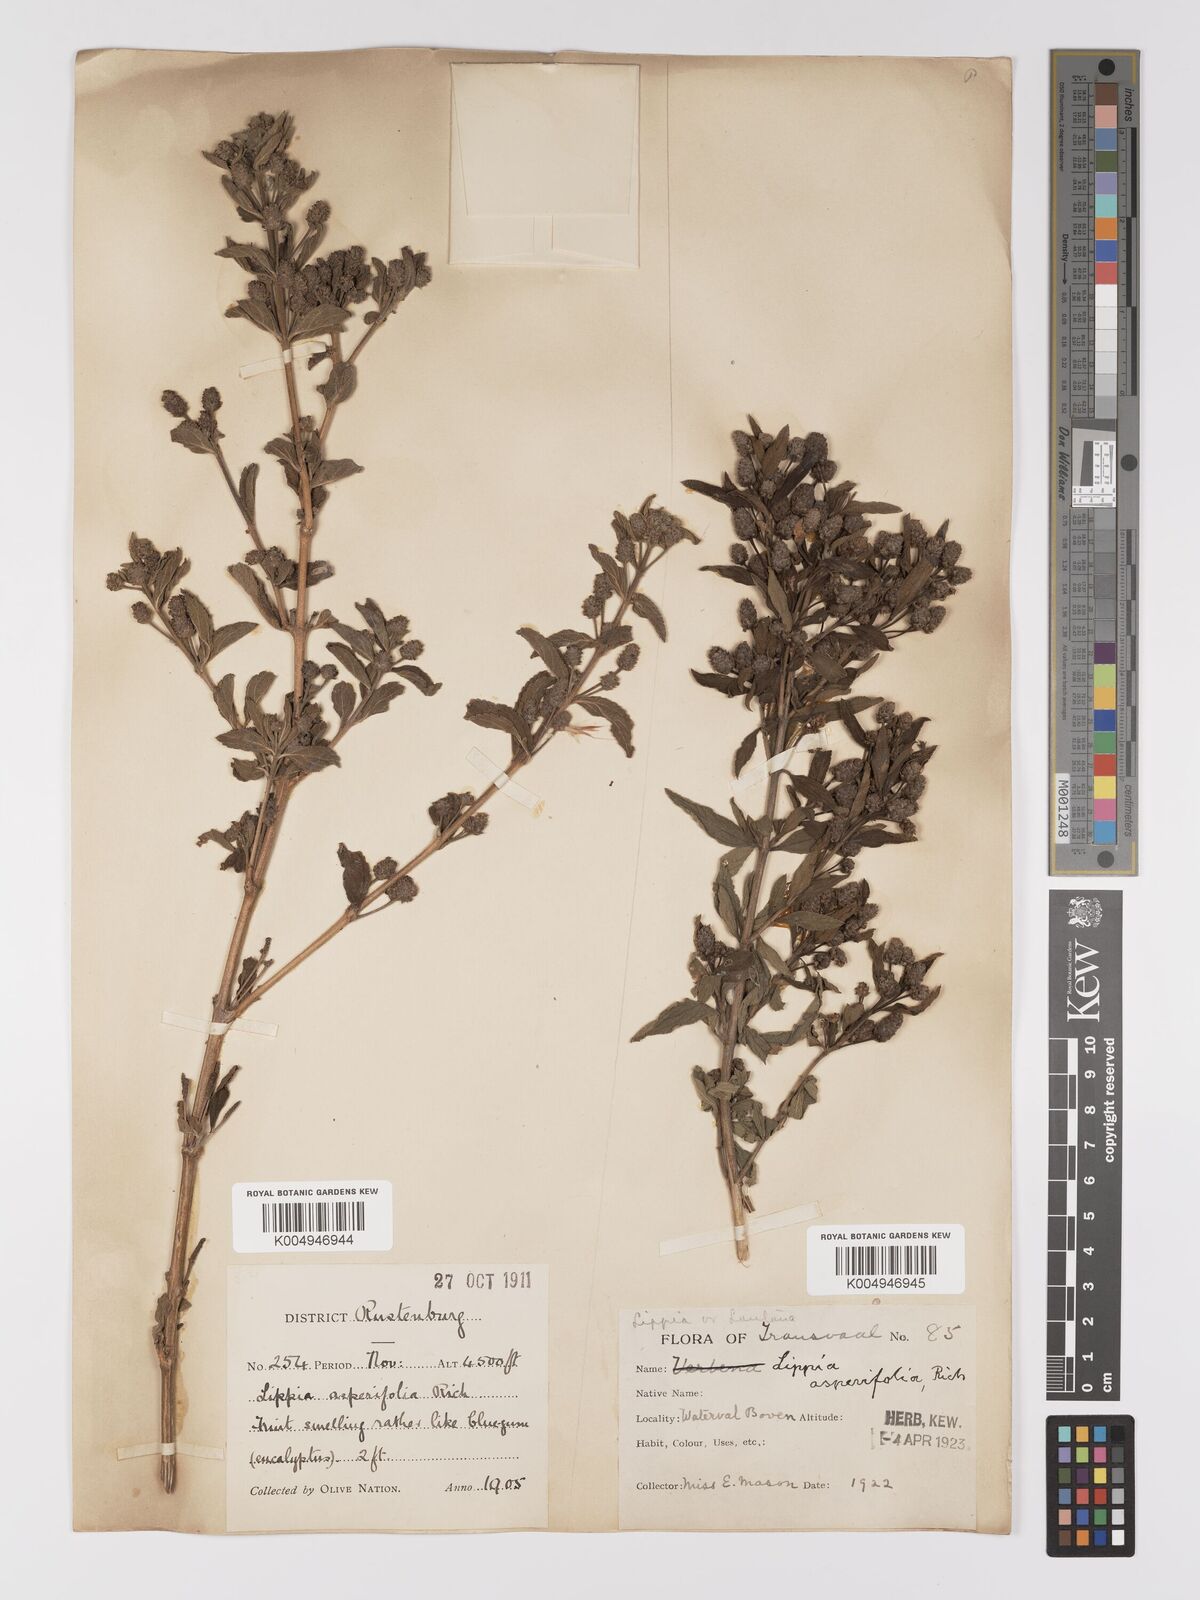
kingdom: Plantae
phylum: Tracheophyta
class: Magnoliopsida
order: Lamiales
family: Verbenaceae
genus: Lippia
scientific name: Lippia
